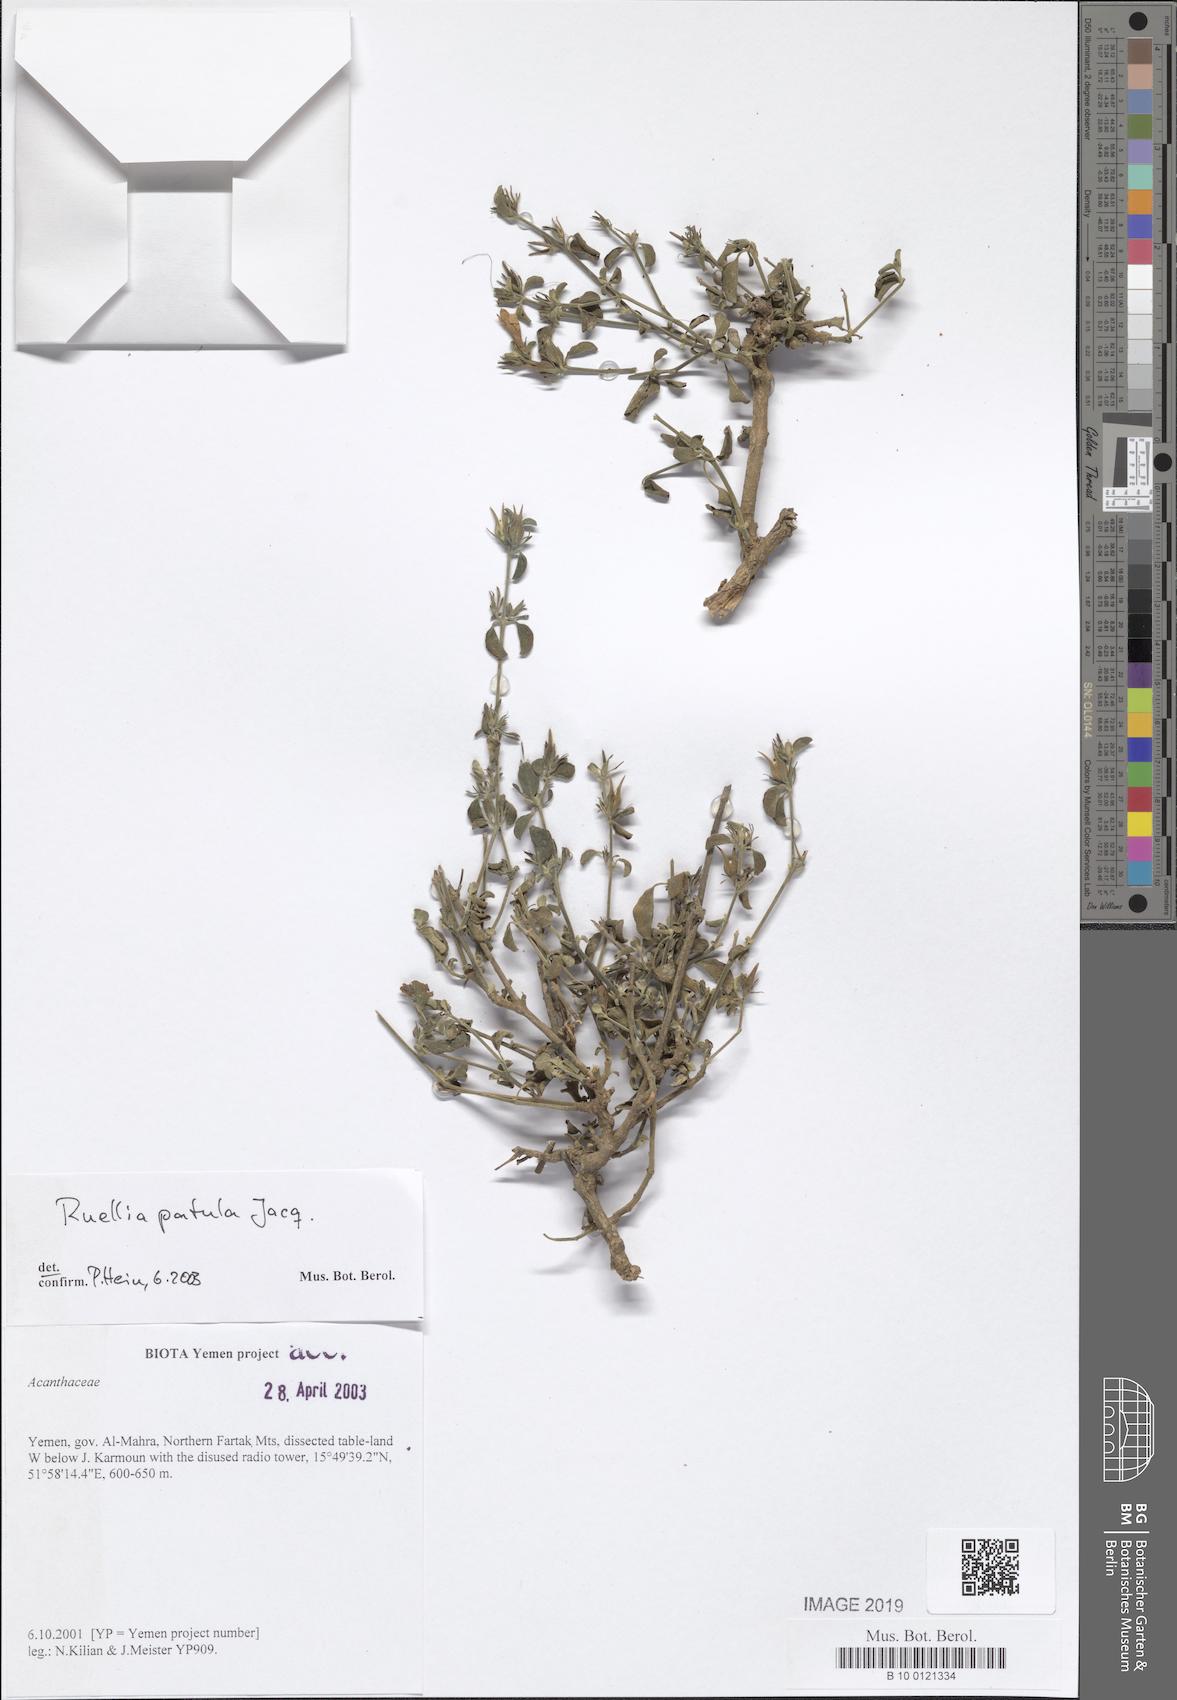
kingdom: Plantae
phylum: Tracheophyta
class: Magnoliopsida
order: Lamiales
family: Acanthaceae
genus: Ruellia
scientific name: Ruellia patula
